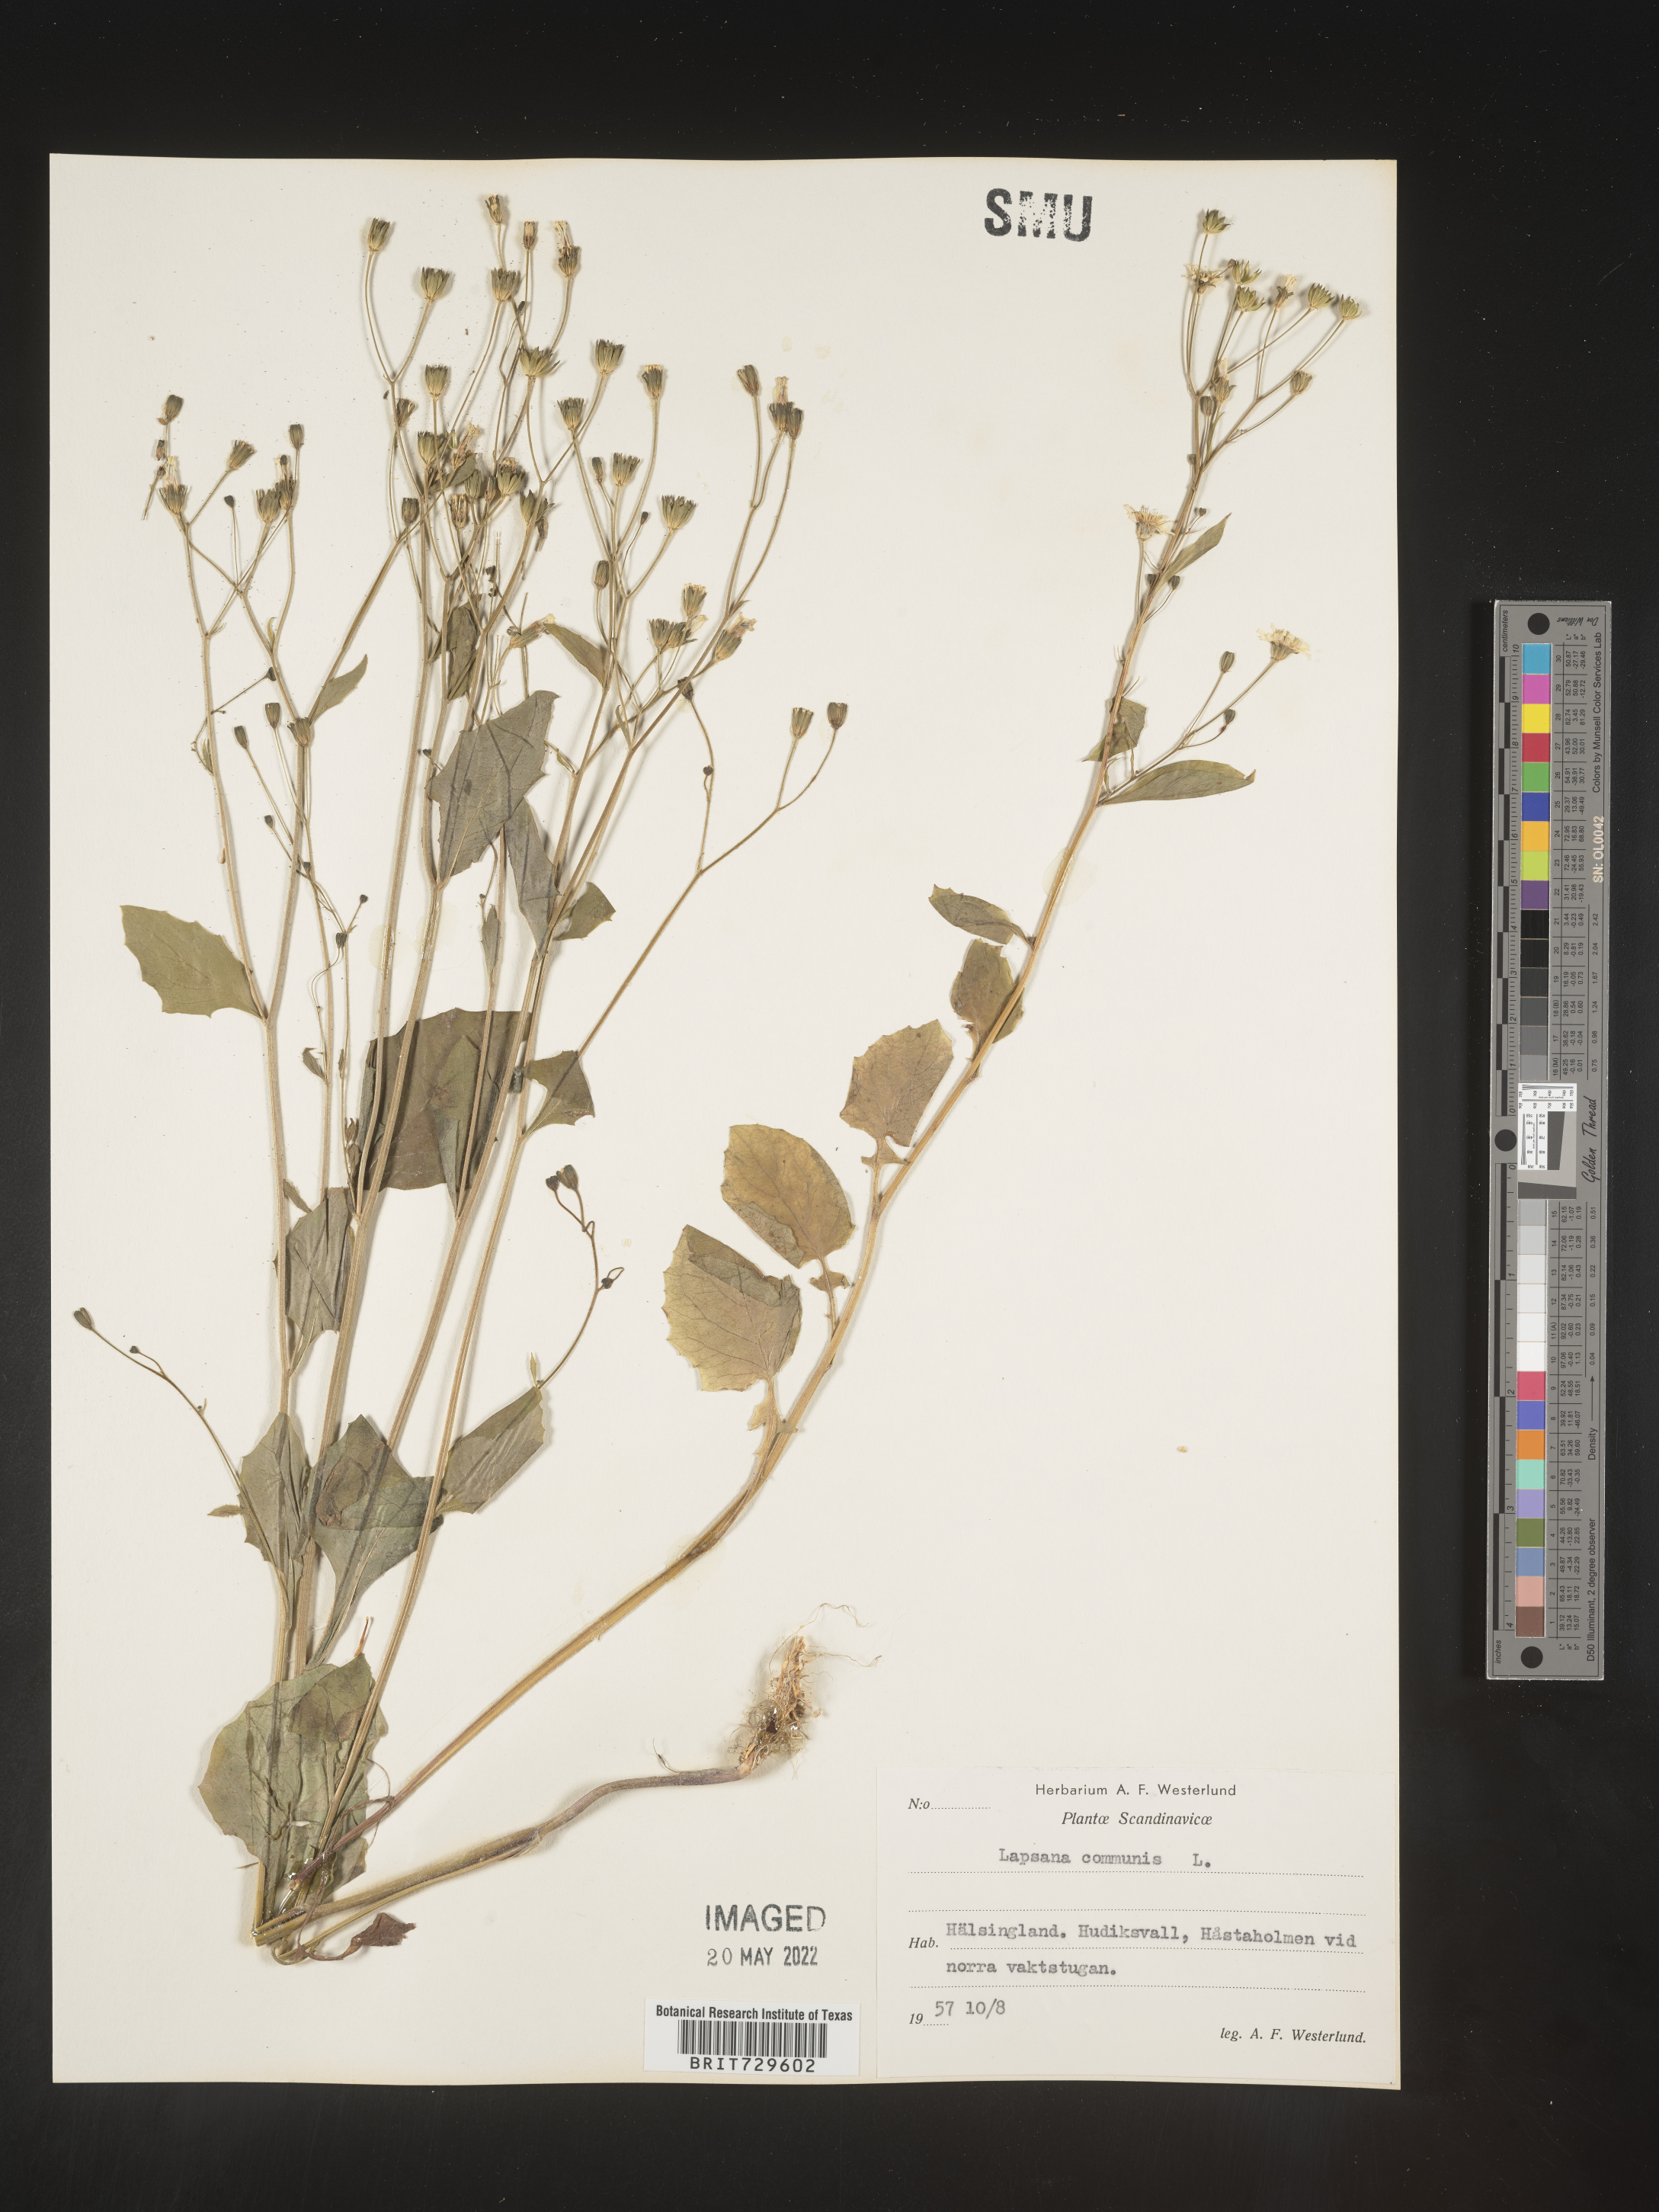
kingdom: Plantae
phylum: Tracheophyta
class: Magnoliopsida
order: Asterales
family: Asteraceae
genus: Lapsana
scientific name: Lapsana
